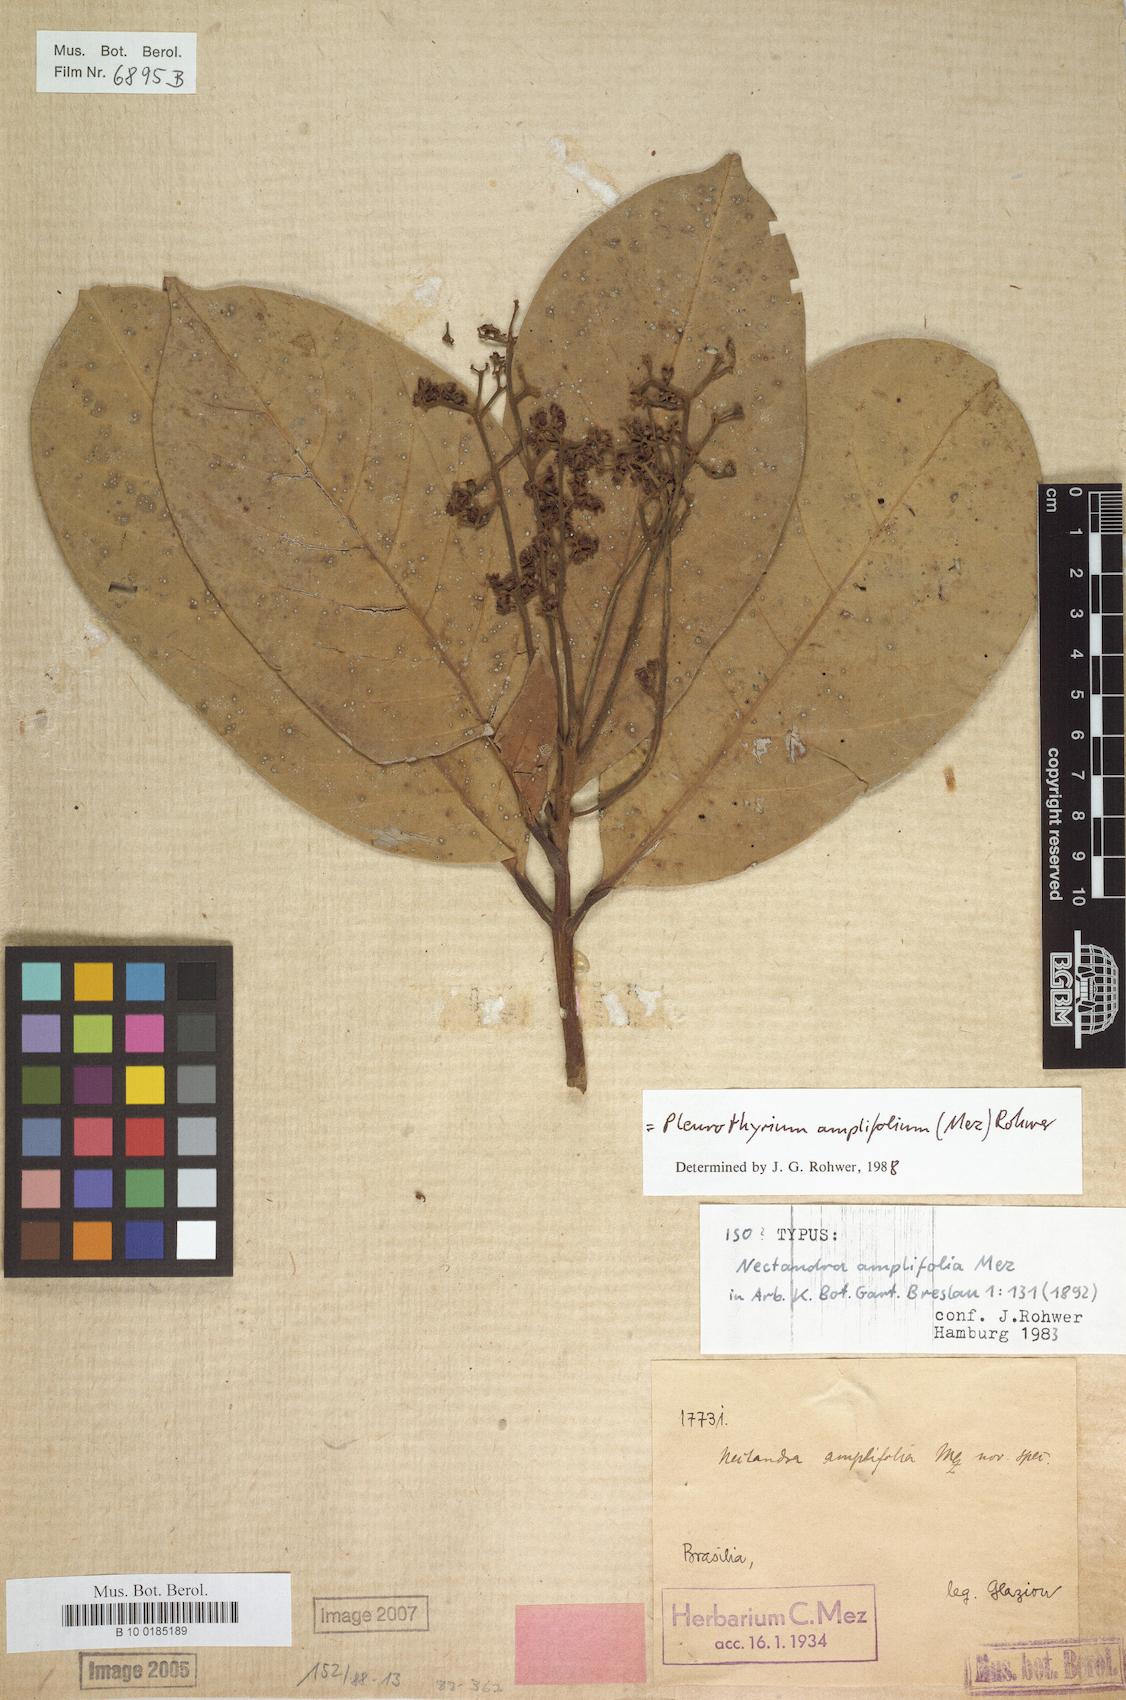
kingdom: Plantae
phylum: Tracheophyta
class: Magnoliopsida
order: Laurales
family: Lauraceae
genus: Pleurothyrium
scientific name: Pleurothyrium amplifolium
